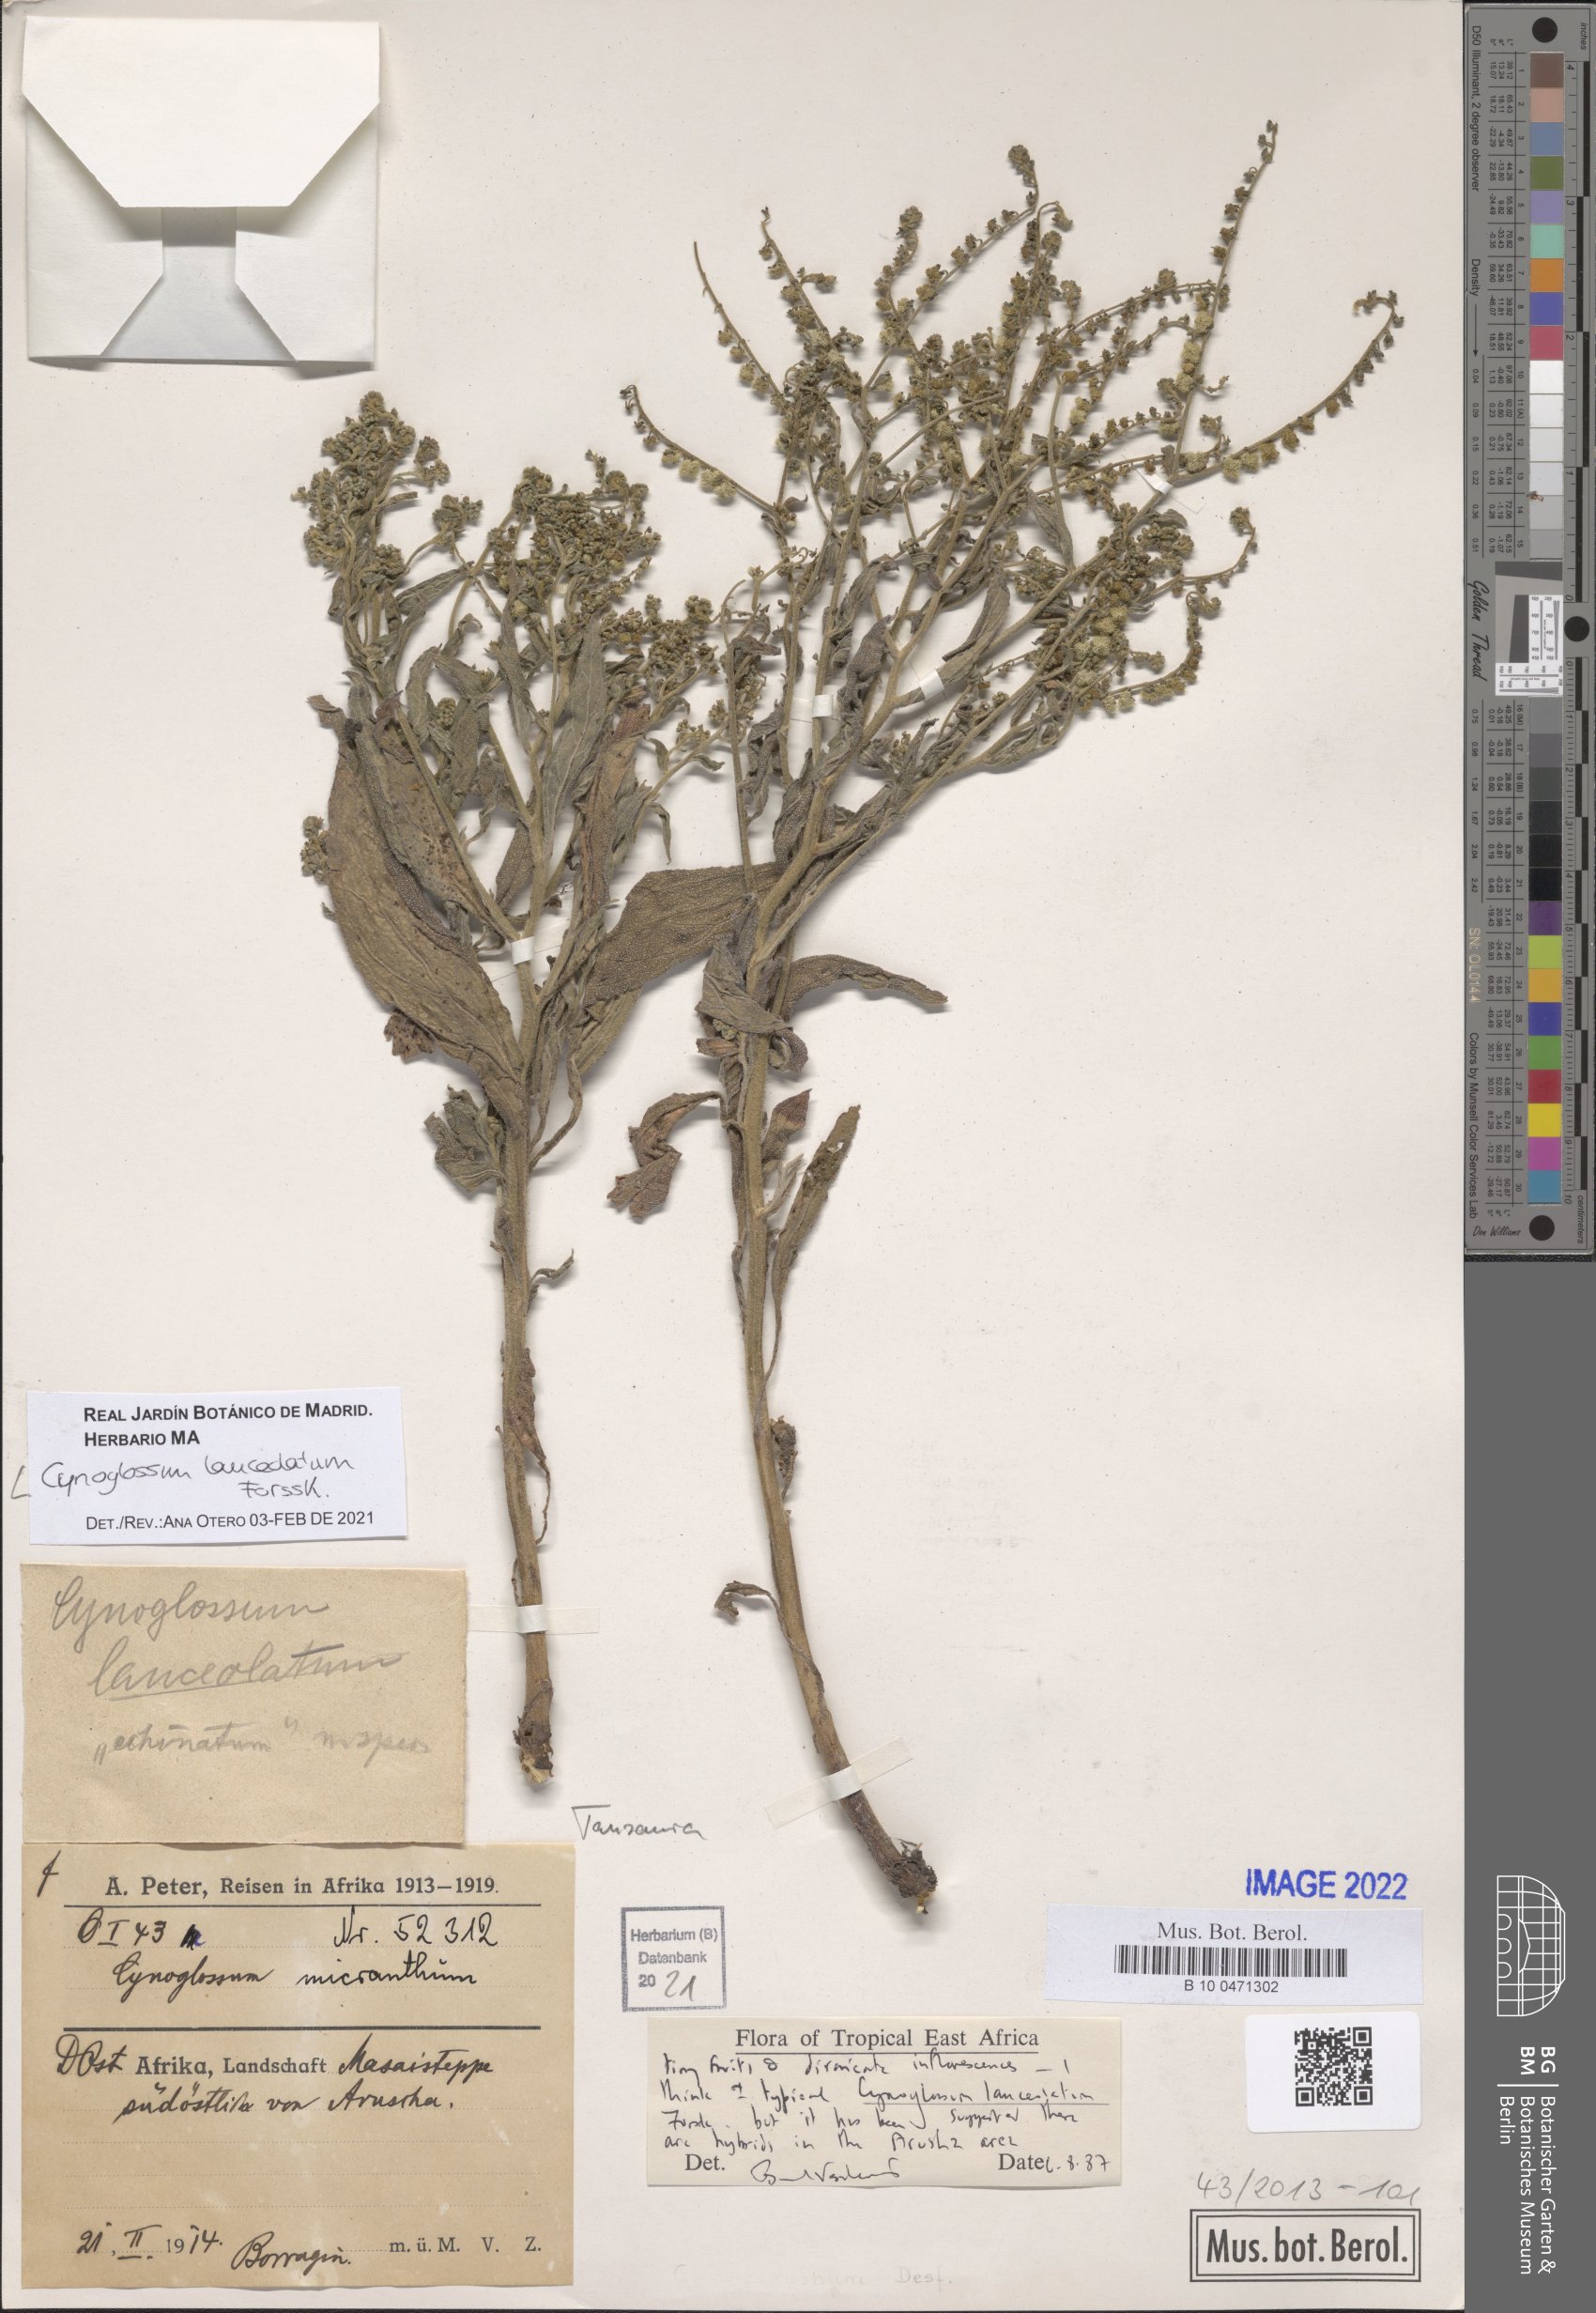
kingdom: Plantae
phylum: Tracheophyta
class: Magnoliopsida
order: Boraginales
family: Boraginaceae
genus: Paracynoglossum
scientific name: Paracynoglossum lanceolatum
